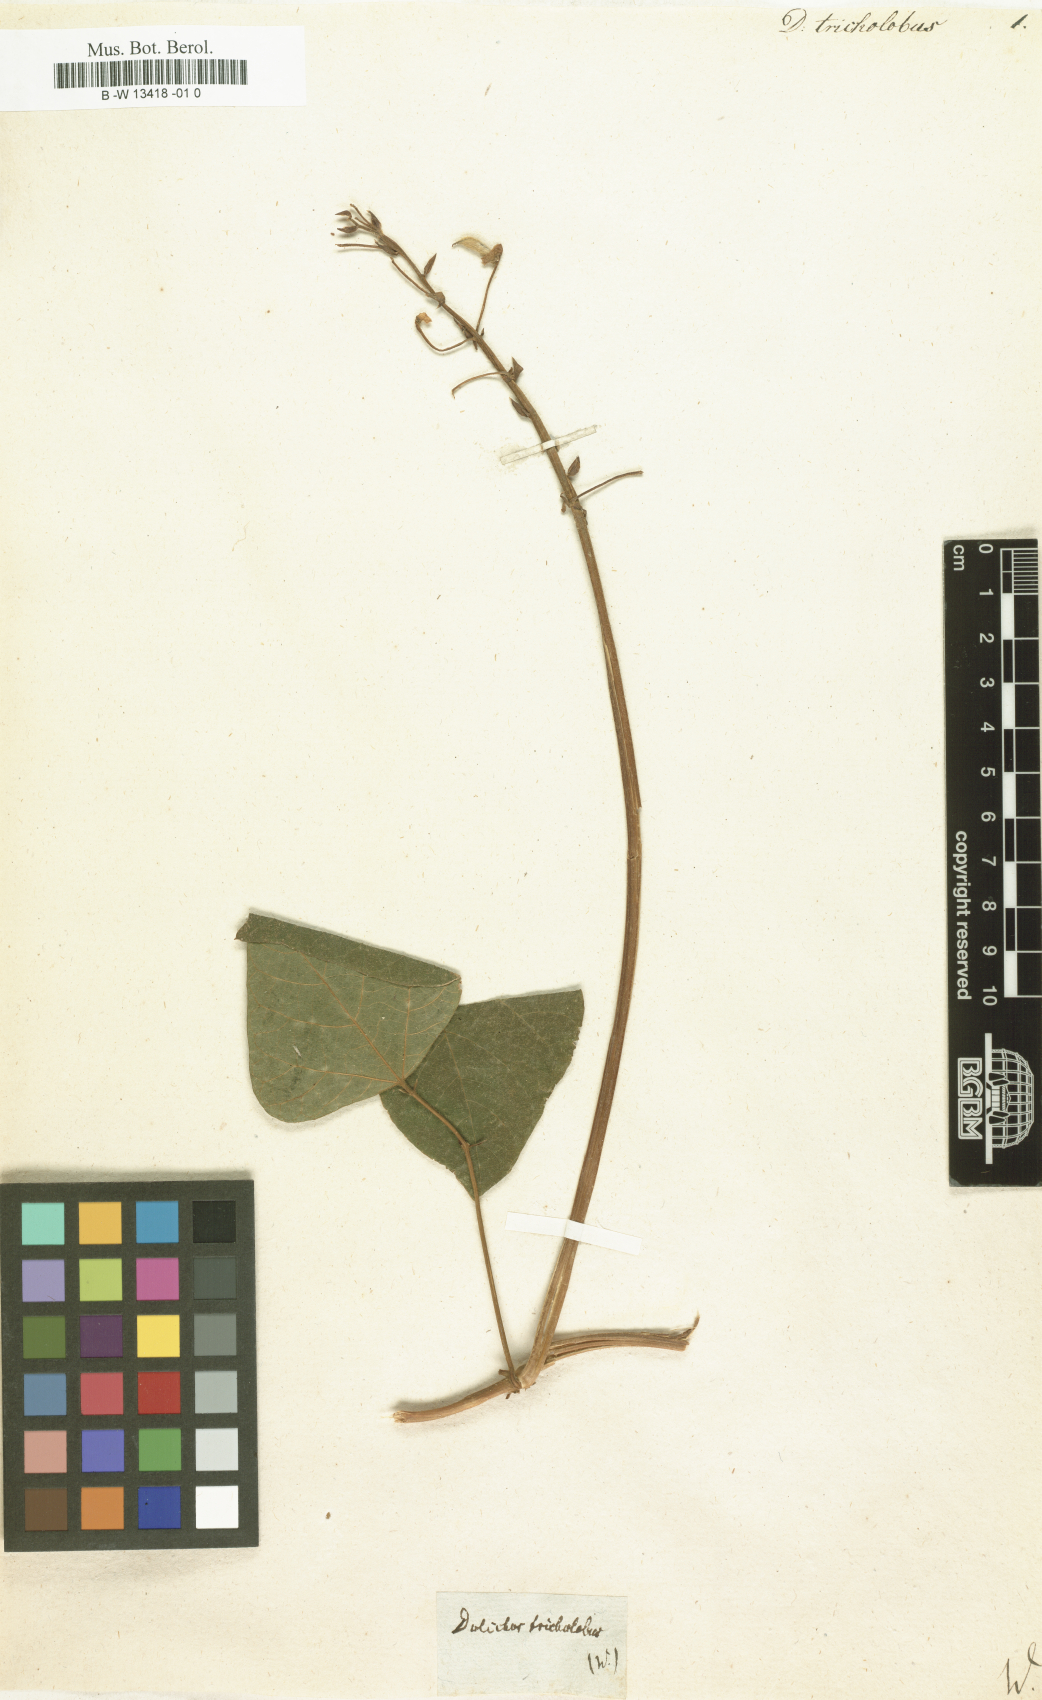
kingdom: Plantae
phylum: Tracheophyta
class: Magnoliopsida
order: Fabales
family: Fabaceae
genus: Dolichos
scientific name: Dolichos
